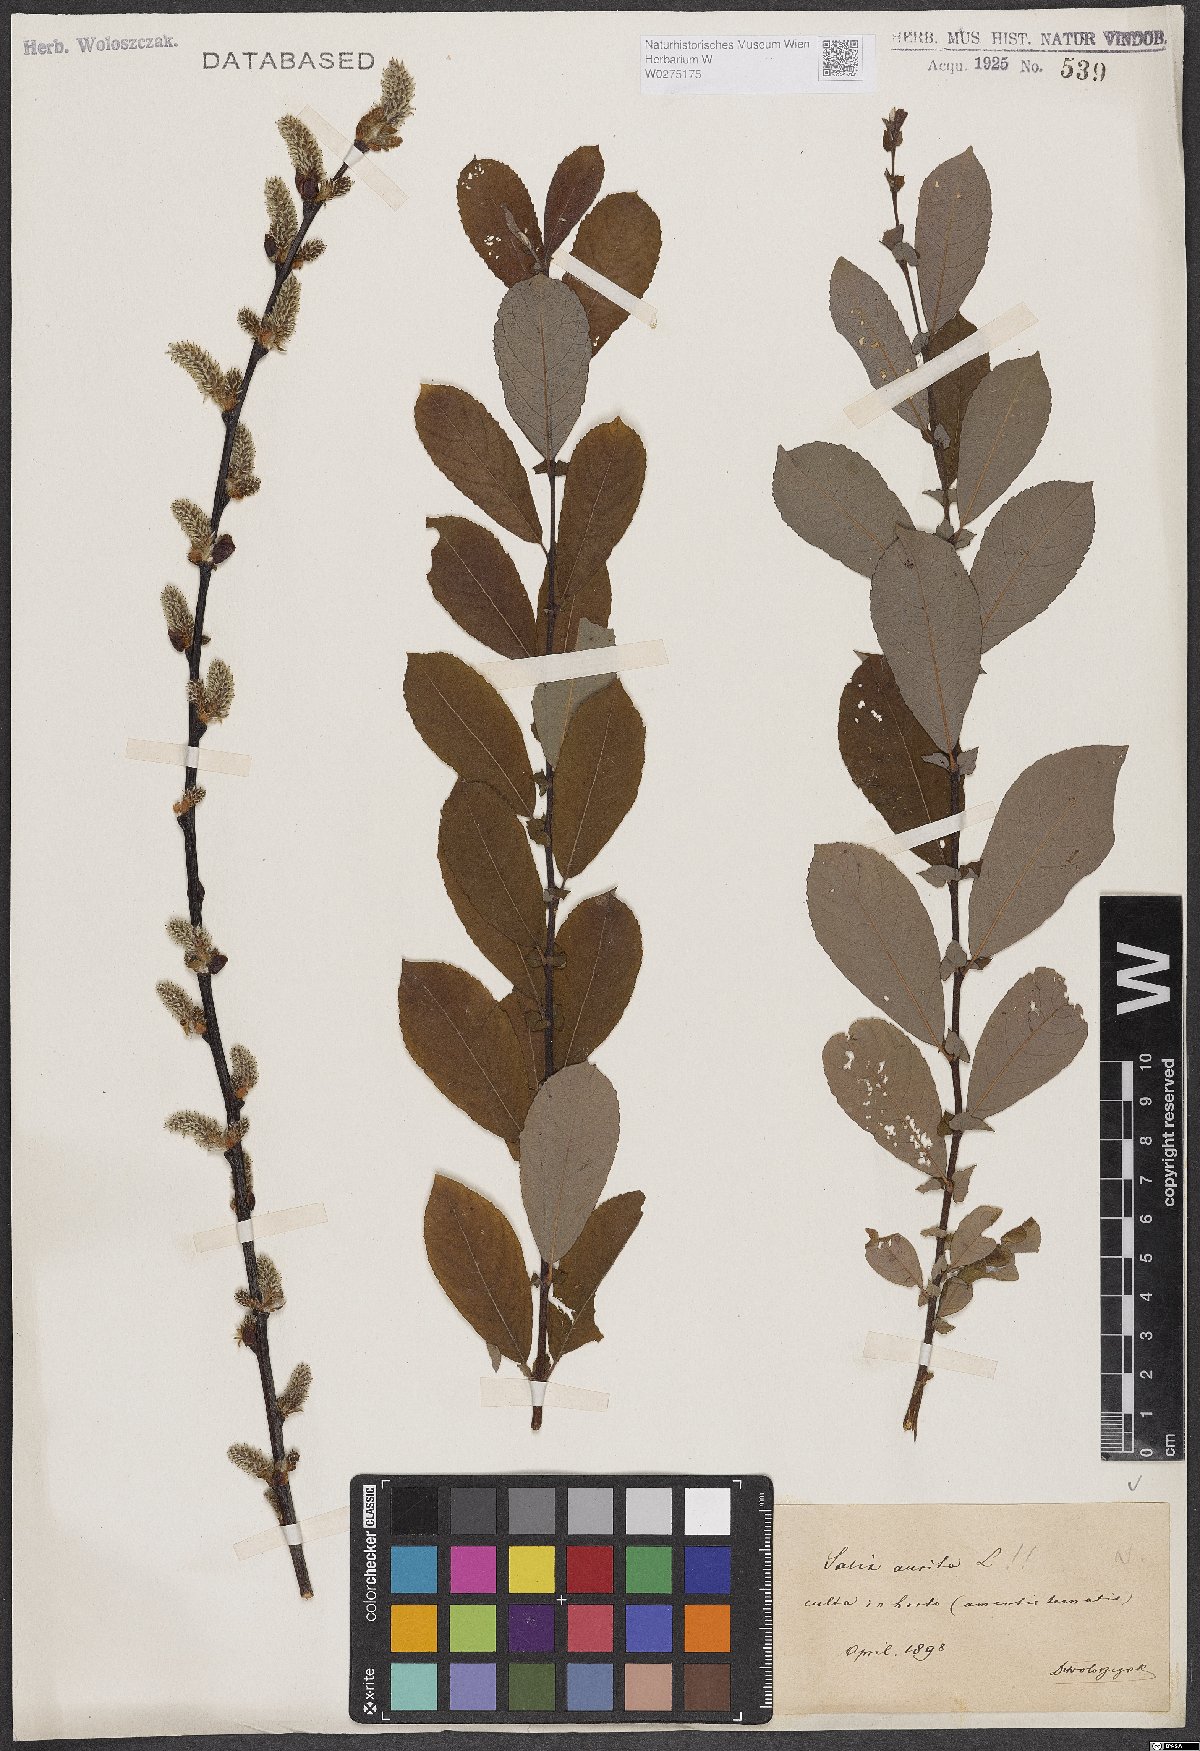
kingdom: Plantae
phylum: Tracheophyta
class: Magnoliopsida
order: Malpighiales
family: Salicaceae
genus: Salix
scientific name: Salix aurita
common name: Eared willow
